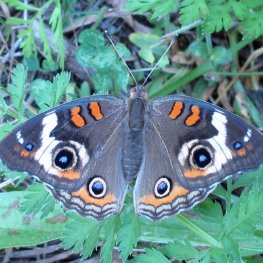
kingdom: Animalia
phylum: Arthropoda
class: Insecta
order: Lepidoptera
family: Nymphalidae
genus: Junonia
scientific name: Junonia coenia
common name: Common Buckeye
